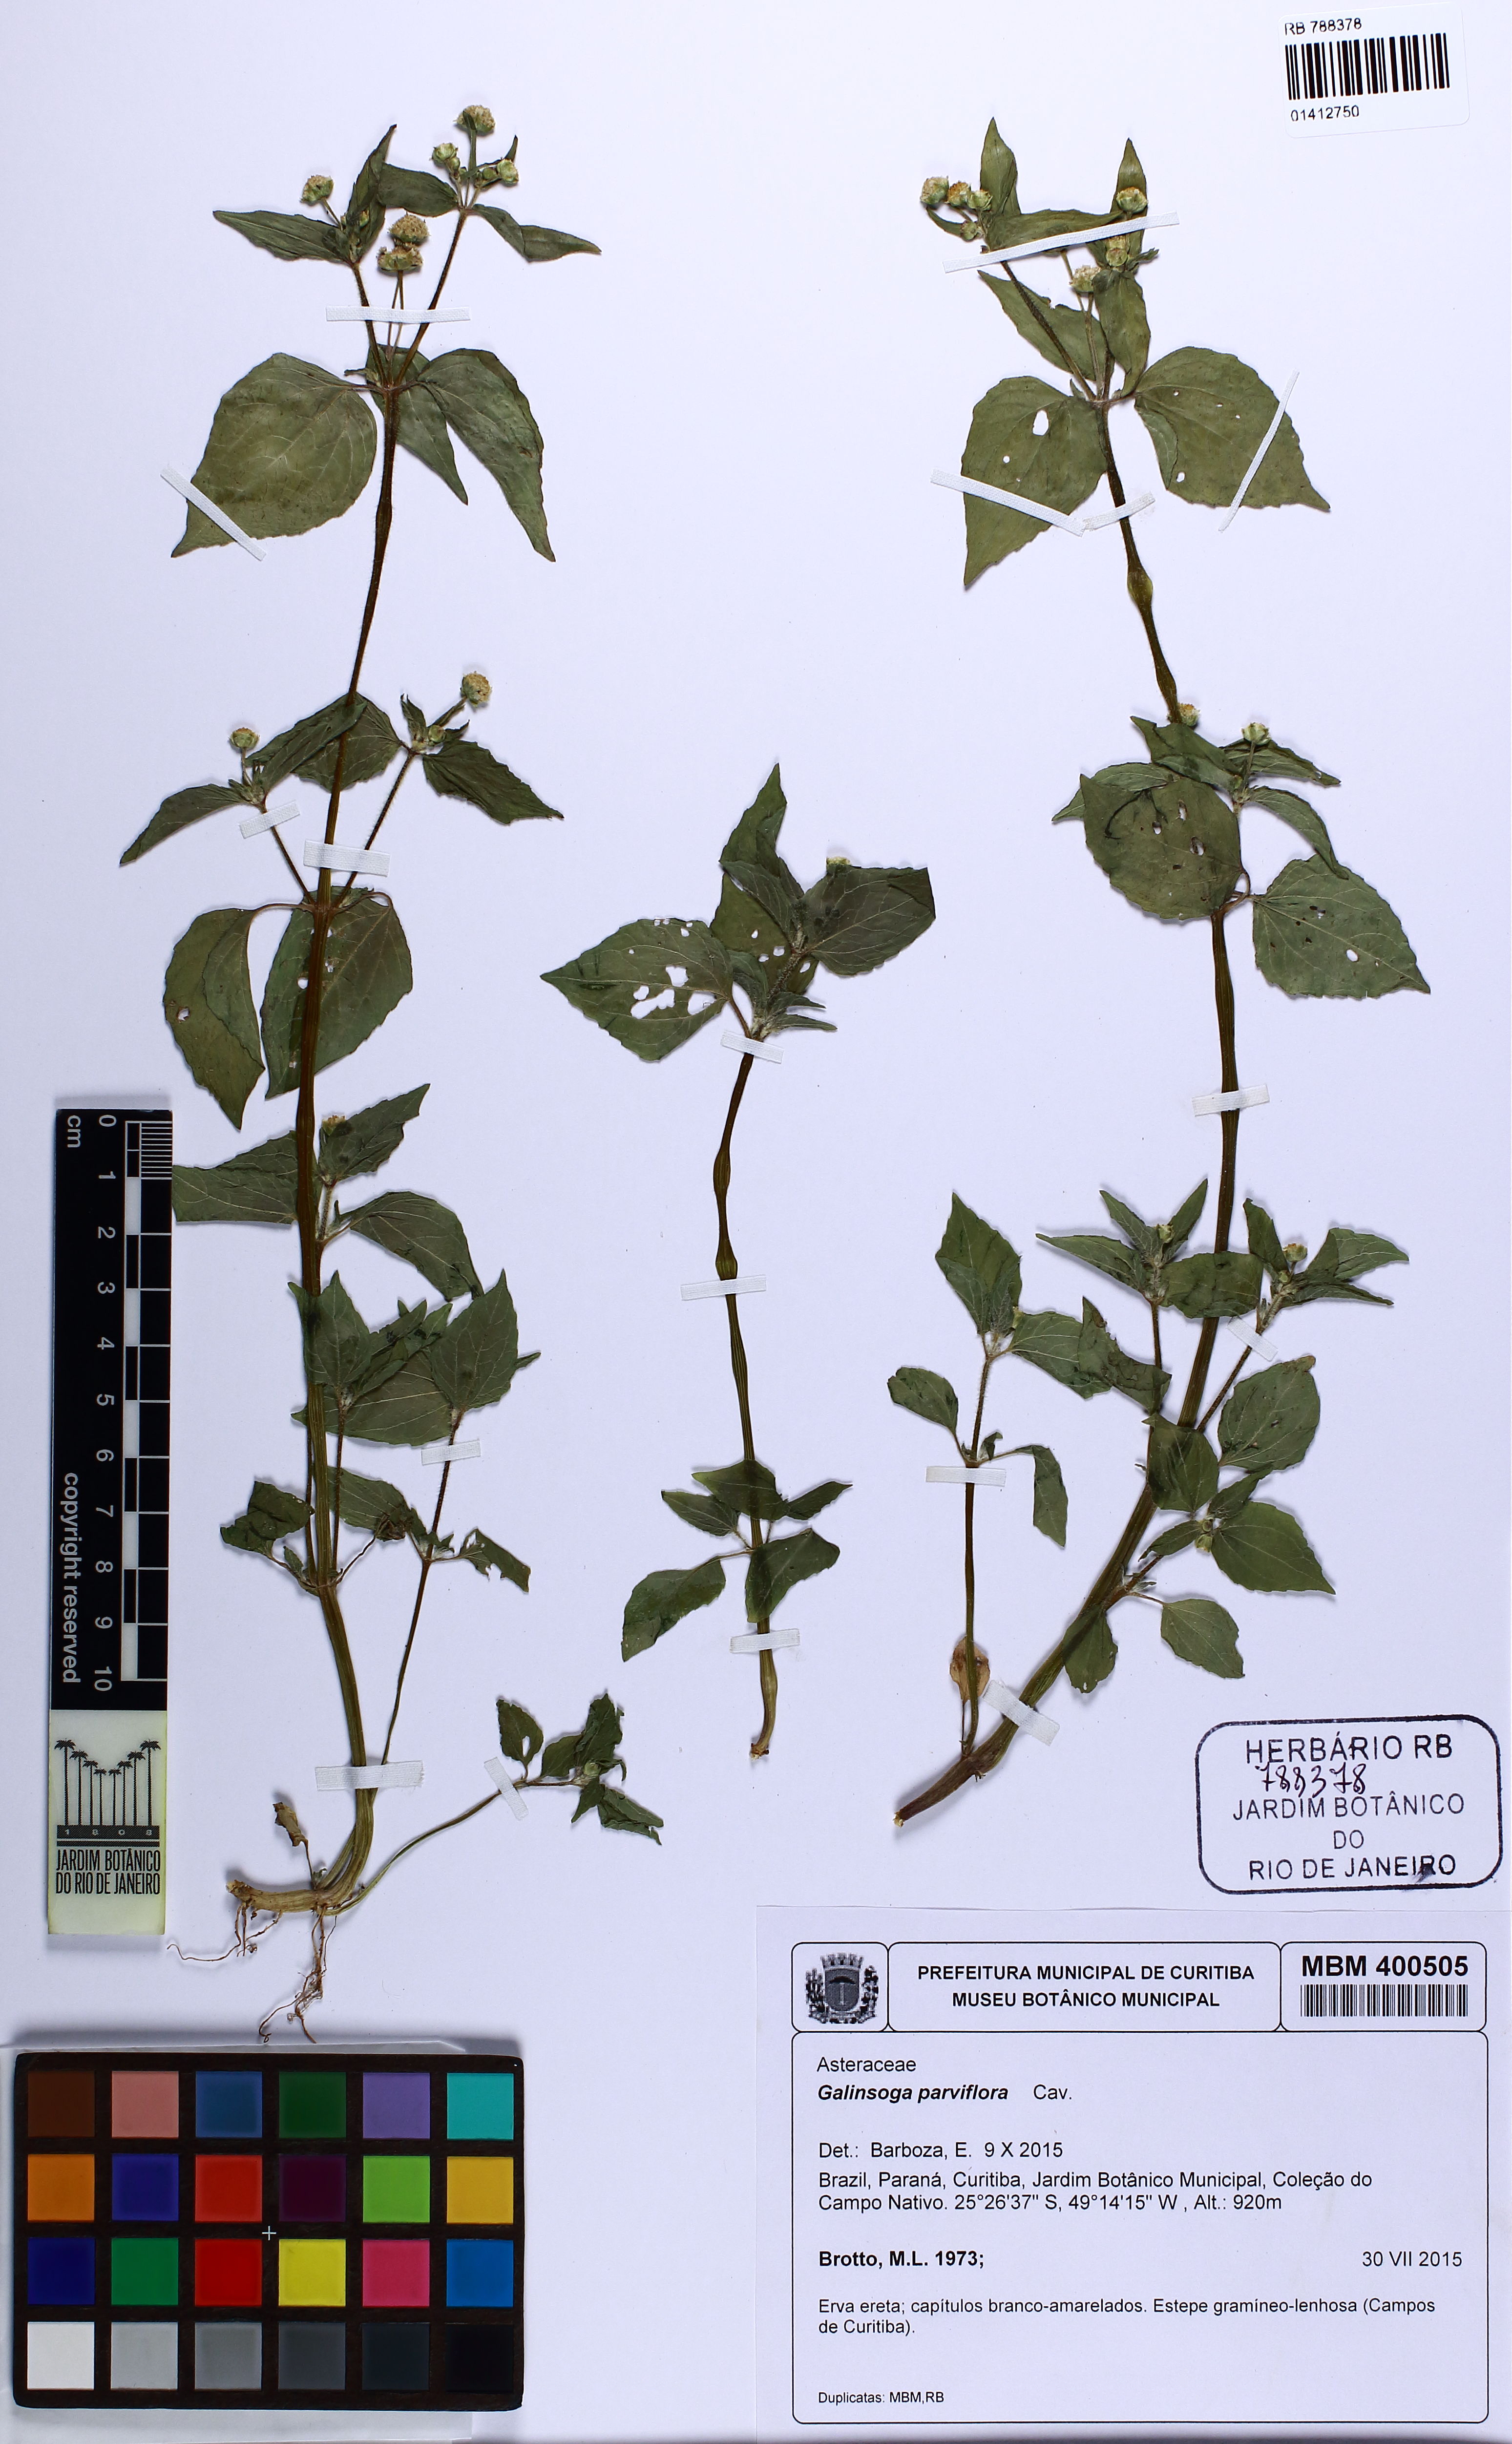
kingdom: Plantae
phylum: Tracheophyta
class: Magnoliopsida
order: Asterales
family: Asteraceae
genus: Galinsoga
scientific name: Galinsoga parviflora
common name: Gallant soldier
